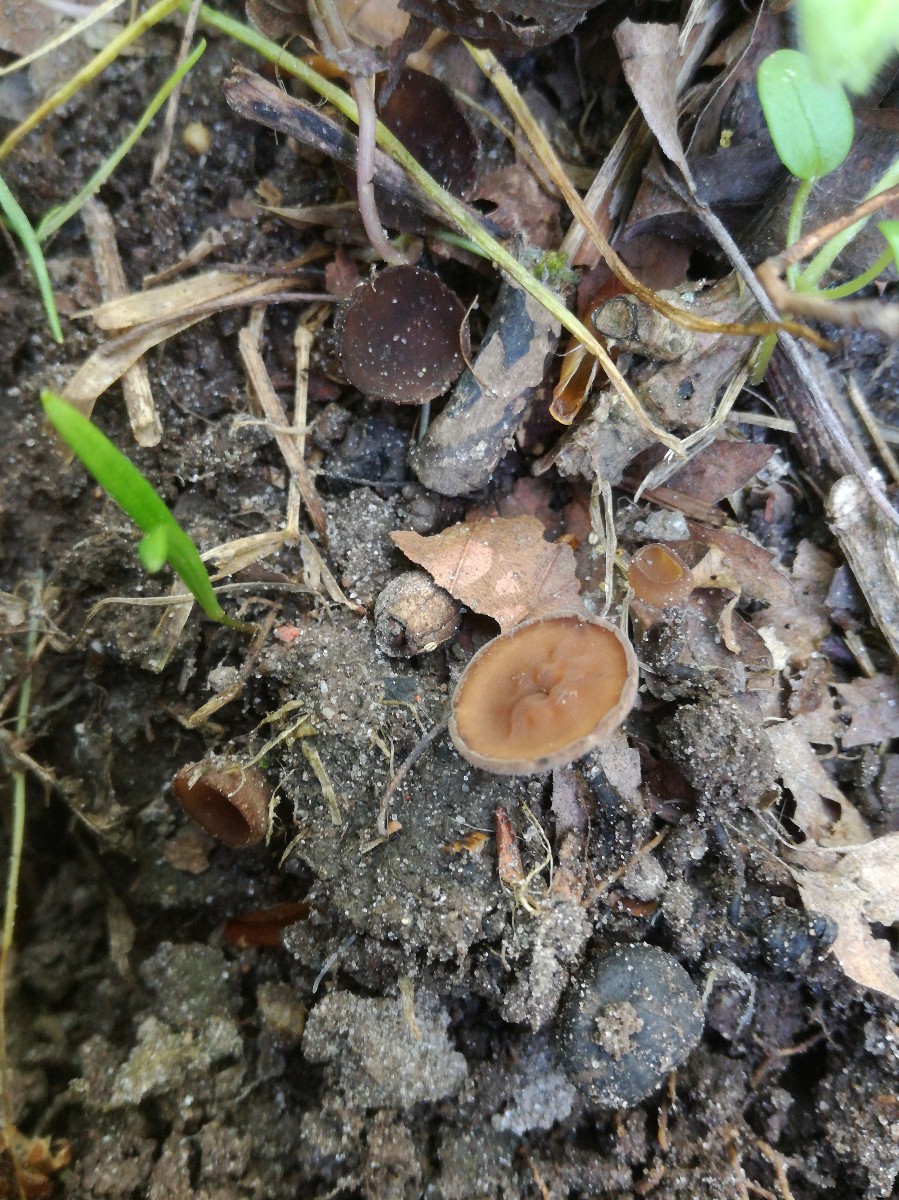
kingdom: Fungi
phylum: Ascomycota
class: Leotiomycetes
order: Helotiales
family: Sclerotiniaceae
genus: Dumontinia
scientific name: Dumontinia tuberosa
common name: anemone-knoldskive
